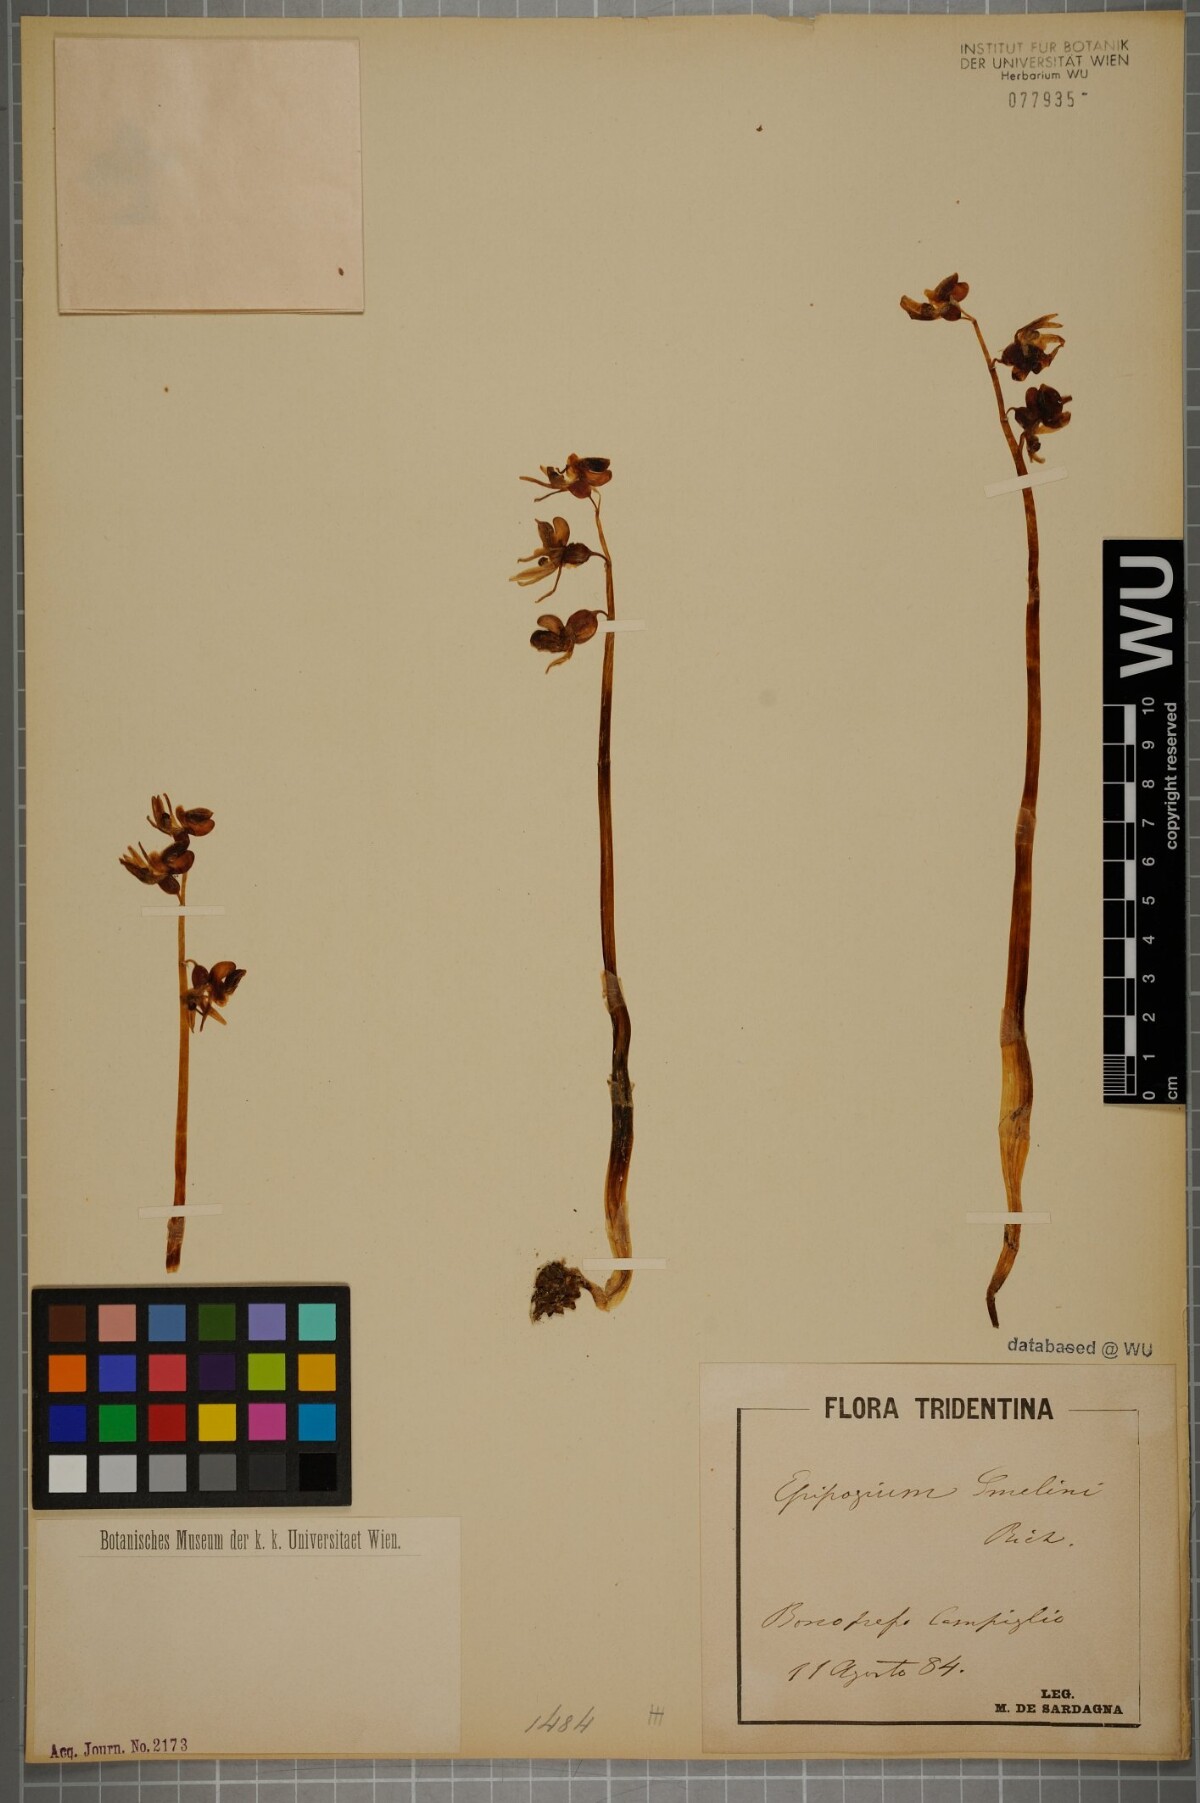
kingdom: Plantae
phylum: Tracheophyta
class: Liliopsida
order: Asparagales
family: Orchidaceae
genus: Epipogium
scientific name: Epipogium aphyllum
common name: Ghost orchid
